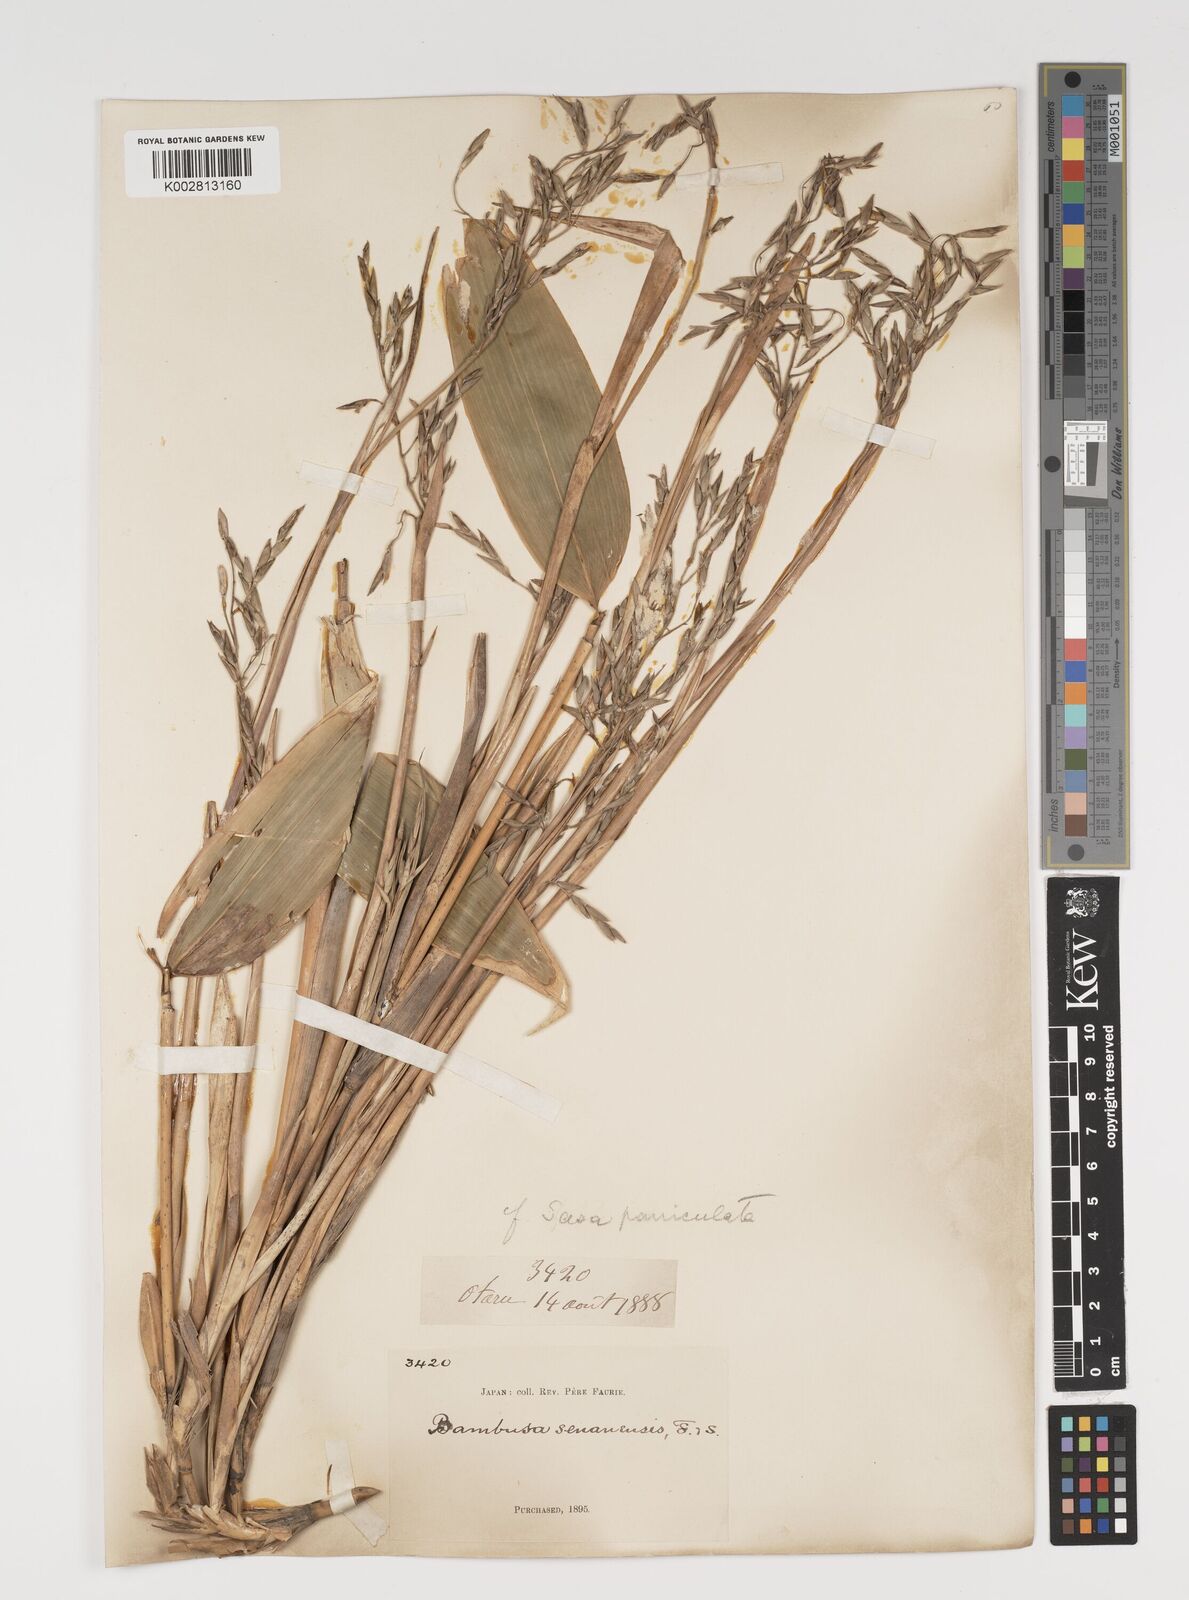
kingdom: Plantae
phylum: Tracheophyta
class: Liliopsida
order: Poales
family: Poaceae
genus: Sasa
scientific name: Sasa palmata
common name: Broad-leaved bamboo
